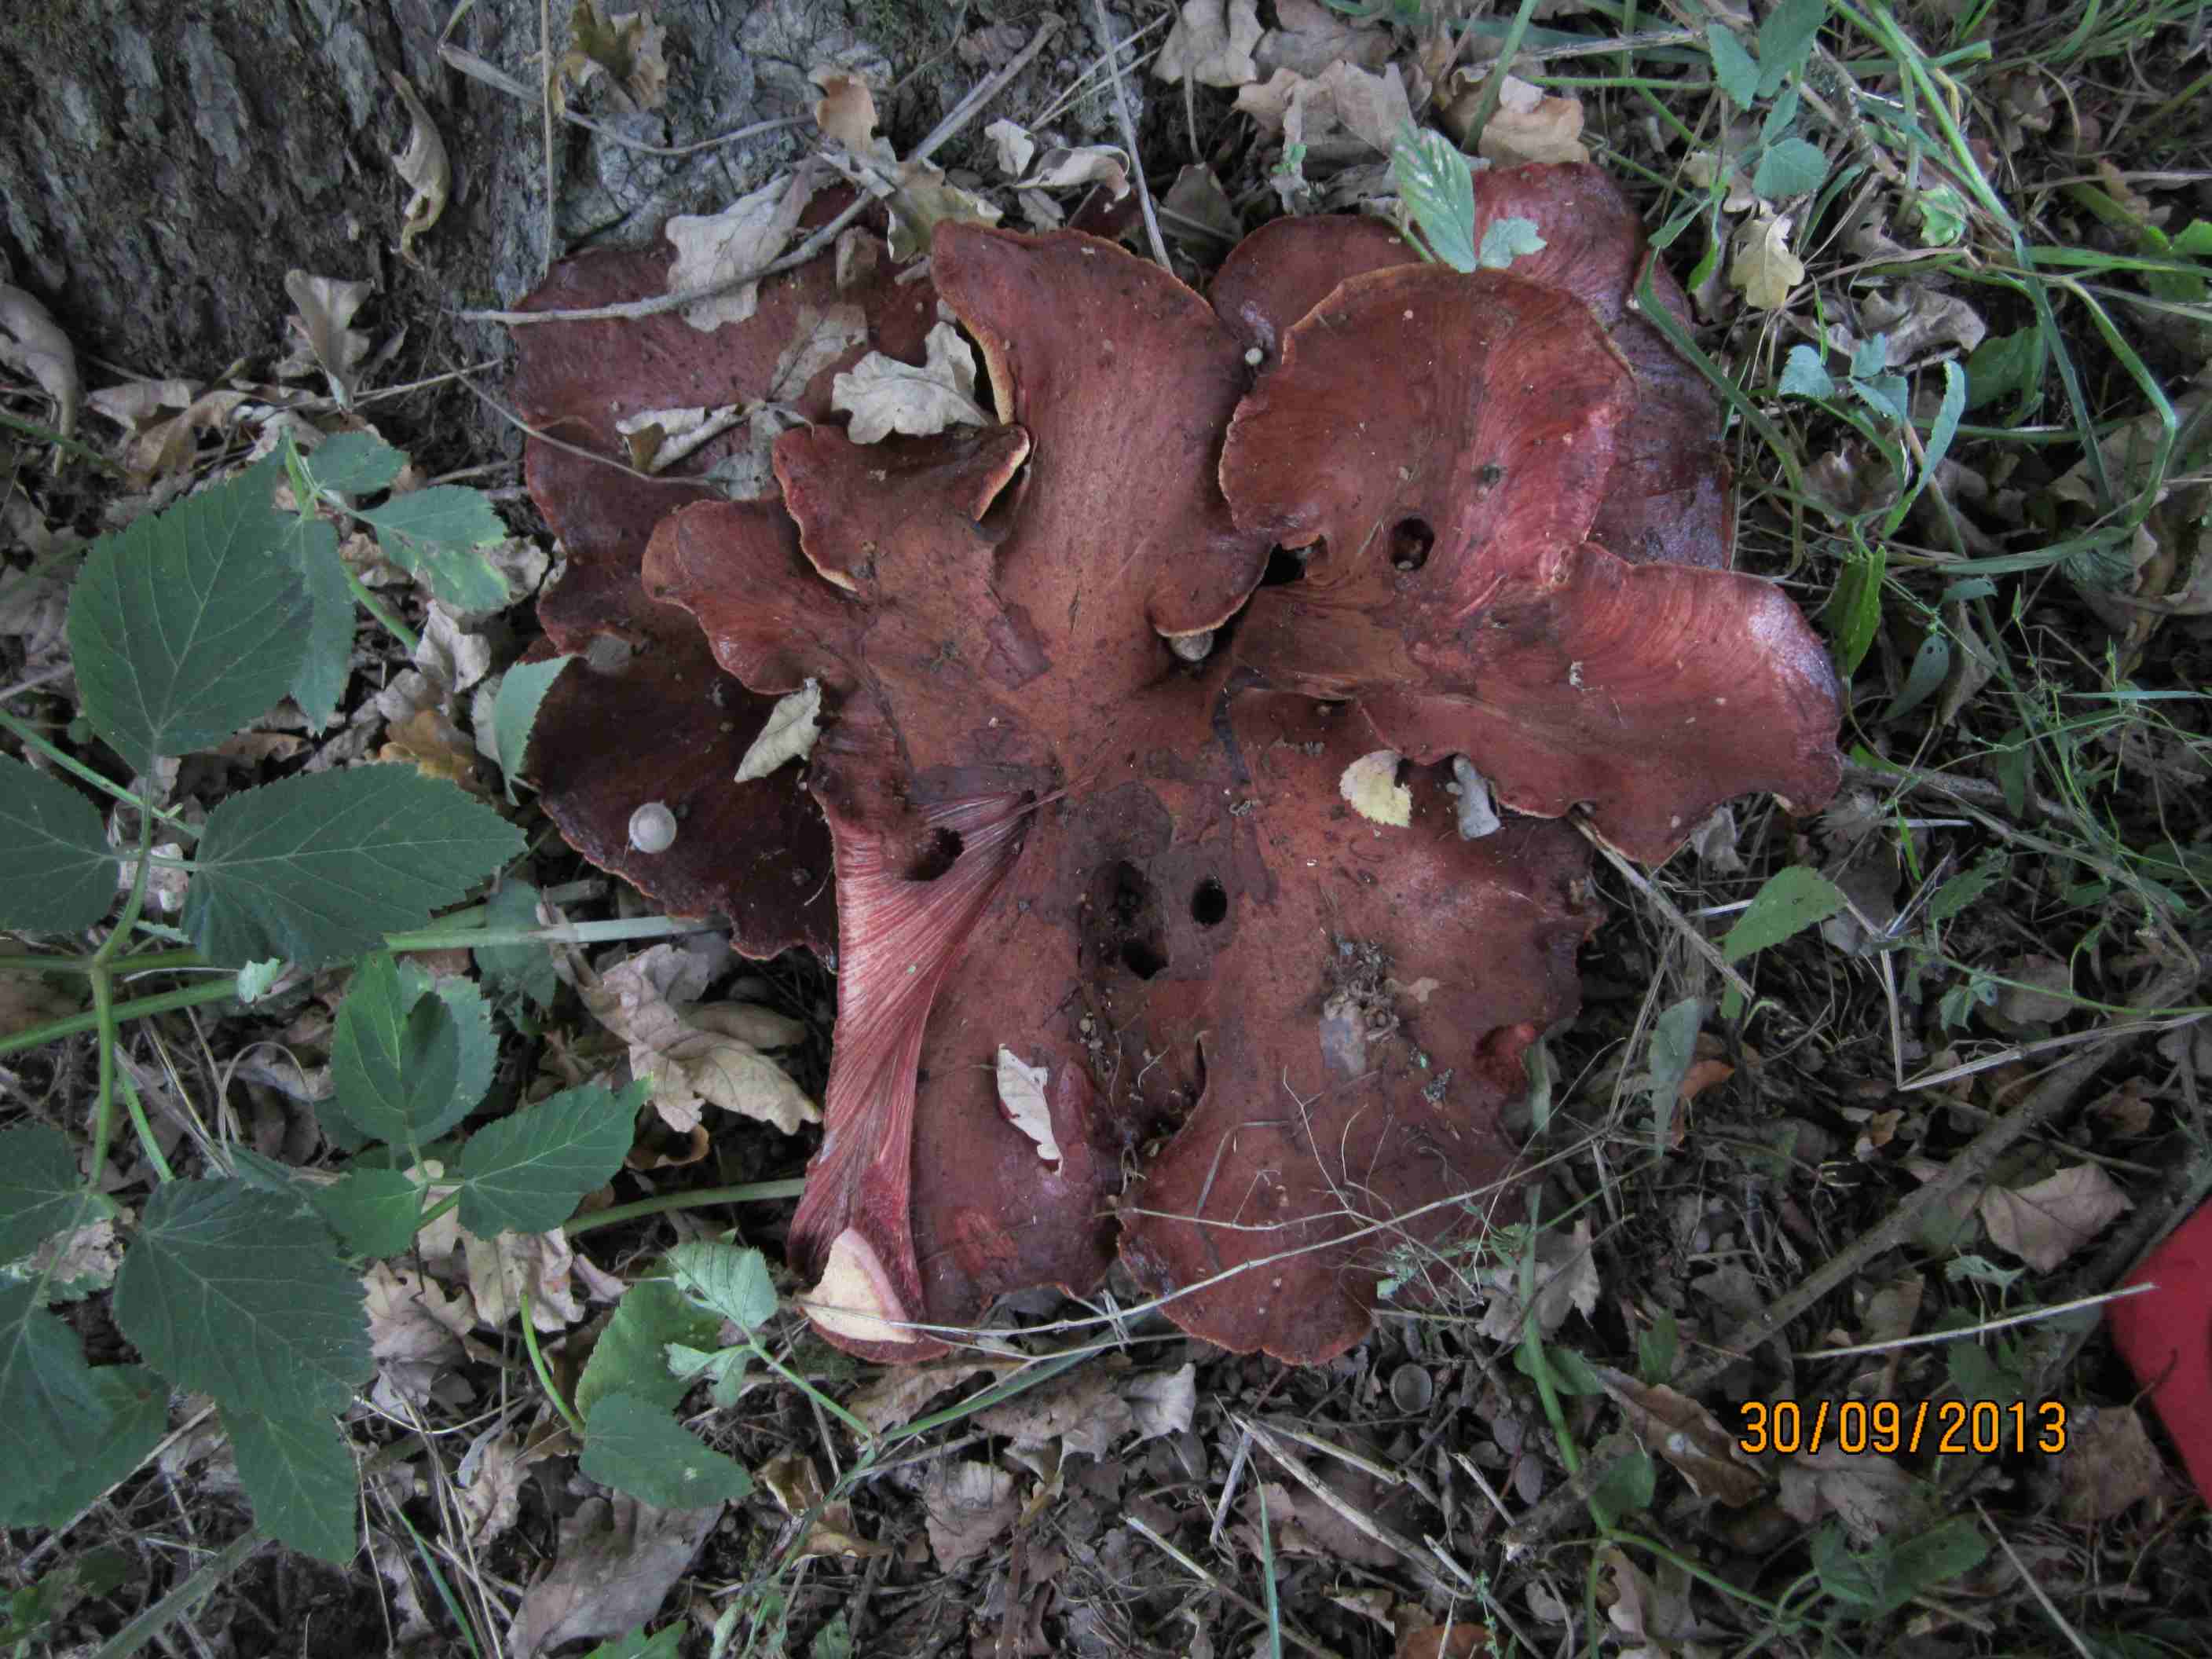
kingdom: Fungi
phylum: Basidiomycota
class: Agaricomycetes
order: Agaricales
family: Fistulinaceae
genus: Fistulina
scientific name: Fistulina hepatica
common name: oksetunge
